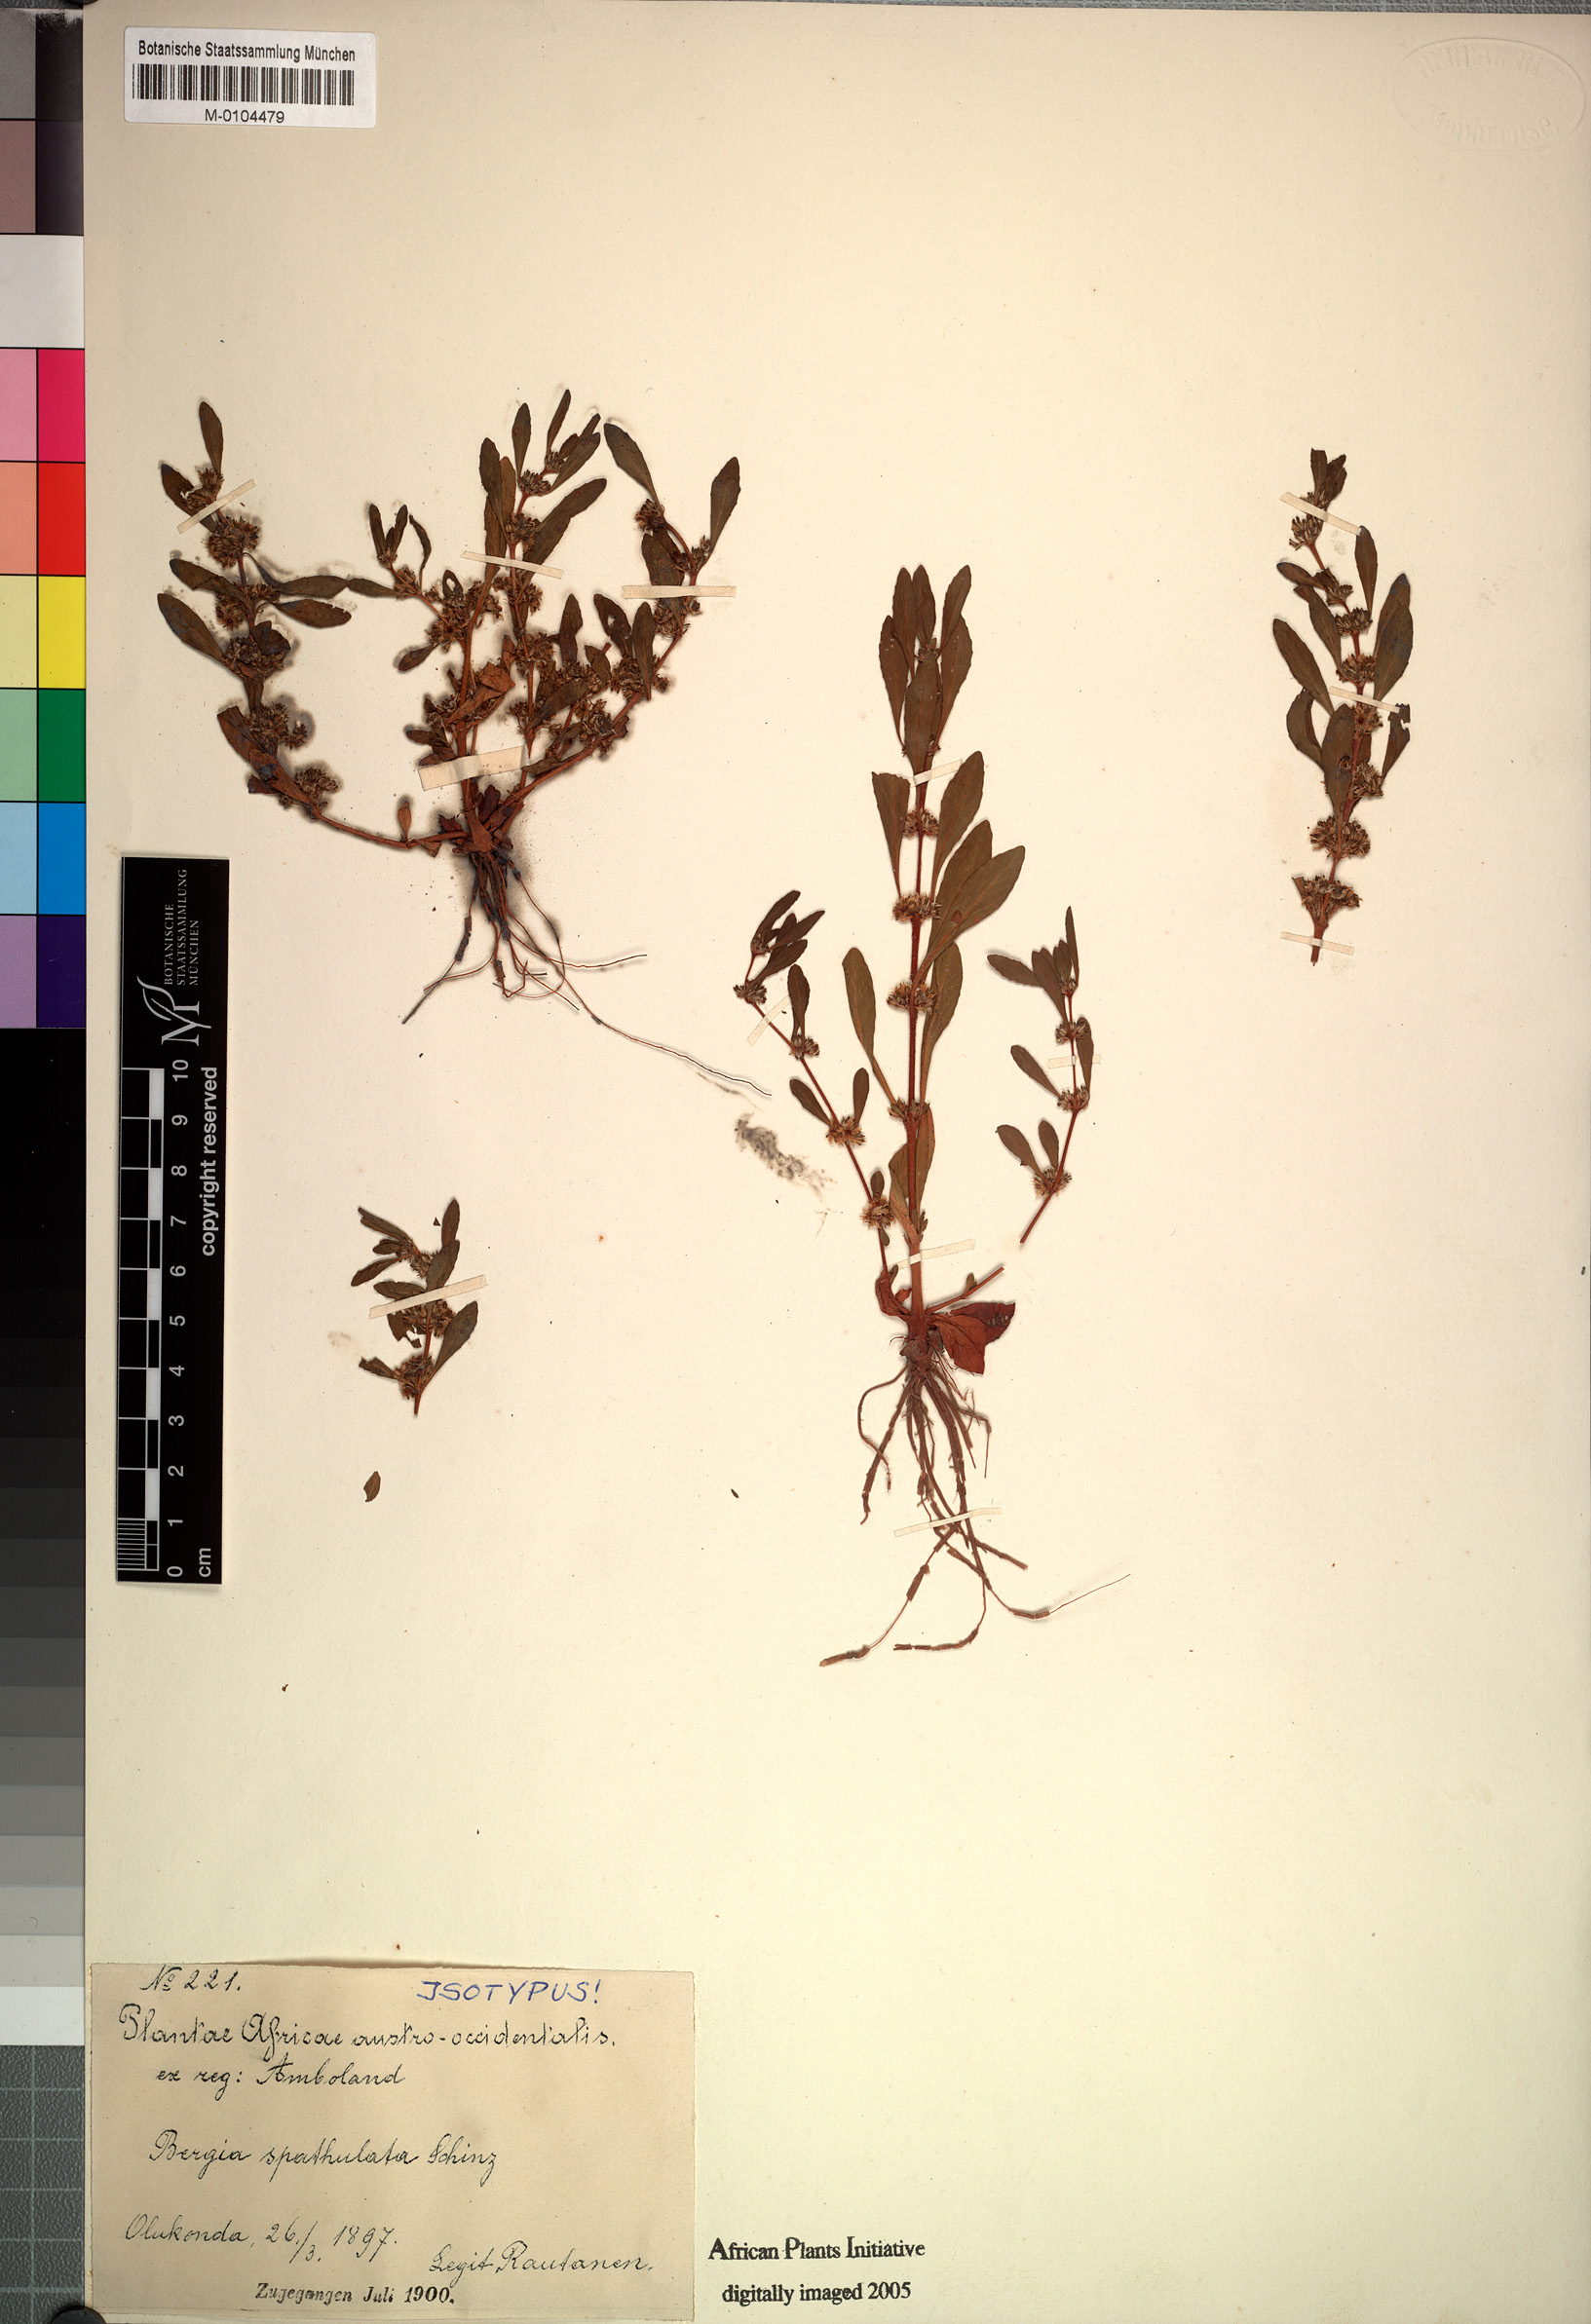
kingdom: Plantae
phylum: Tracheophyta
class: Magnoliopsida
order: Malpighiales
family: Elatinaceae
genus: Bergia
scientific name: Bergia spathulata
